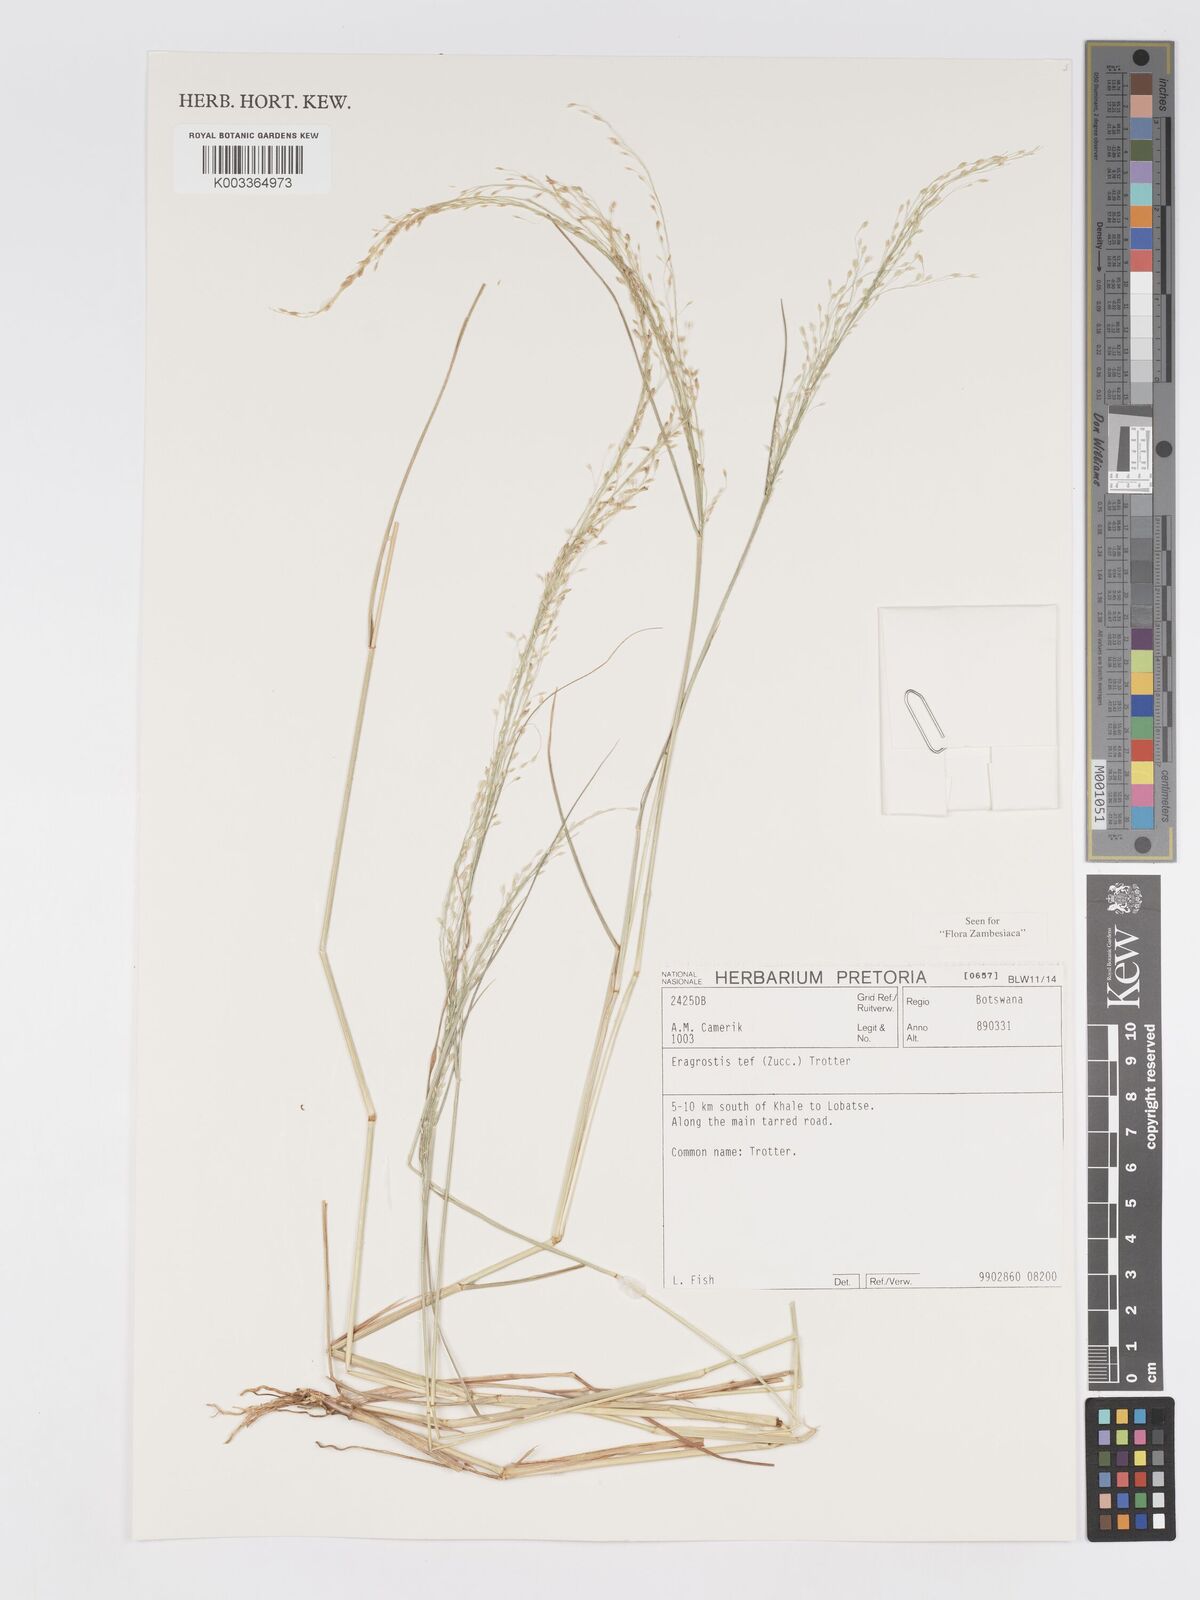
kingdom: Plantae
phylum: Tracheophyta
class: Liliopsida
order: Poales
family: Poaceae
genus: Eragrostis
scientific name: Eragrostis tef
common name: Teff
